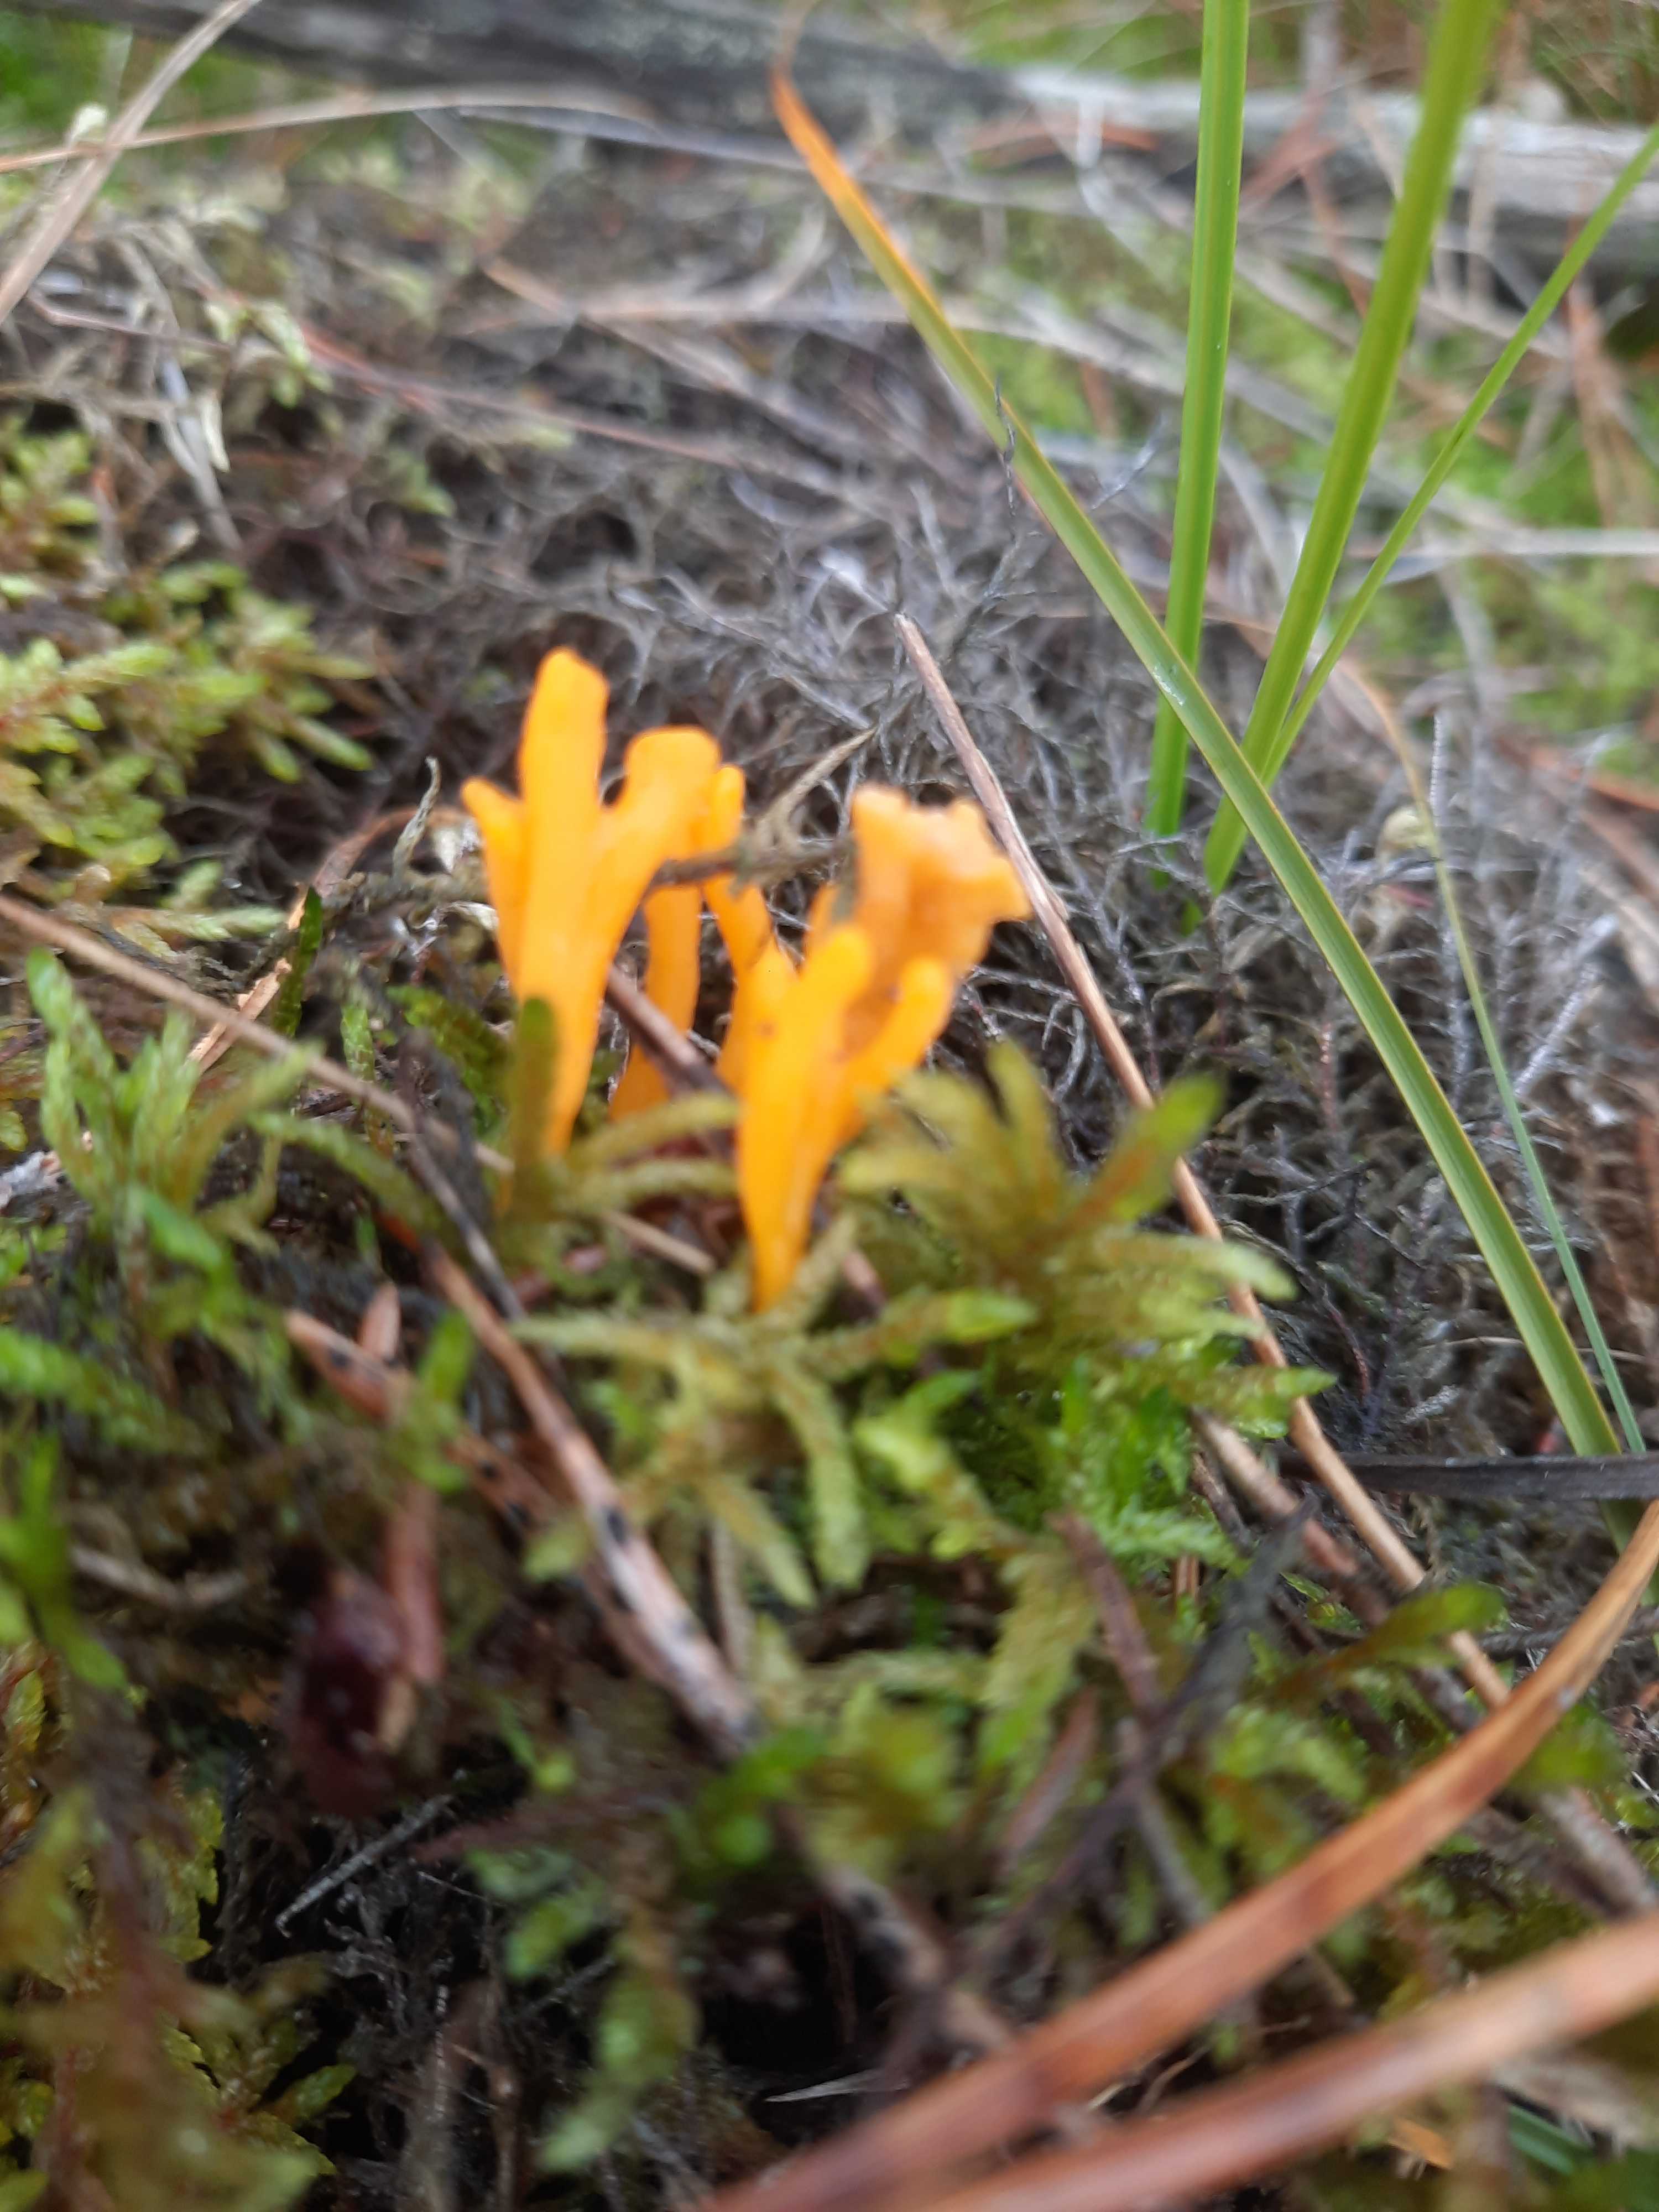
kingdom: Fungi
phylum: Basidiomycota
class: Dacrymycetes
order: Dacrymycetales
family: Dacrymycetaceae
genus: Calocera
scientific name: Calocera viscosa
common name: almindelig guldgaffel
